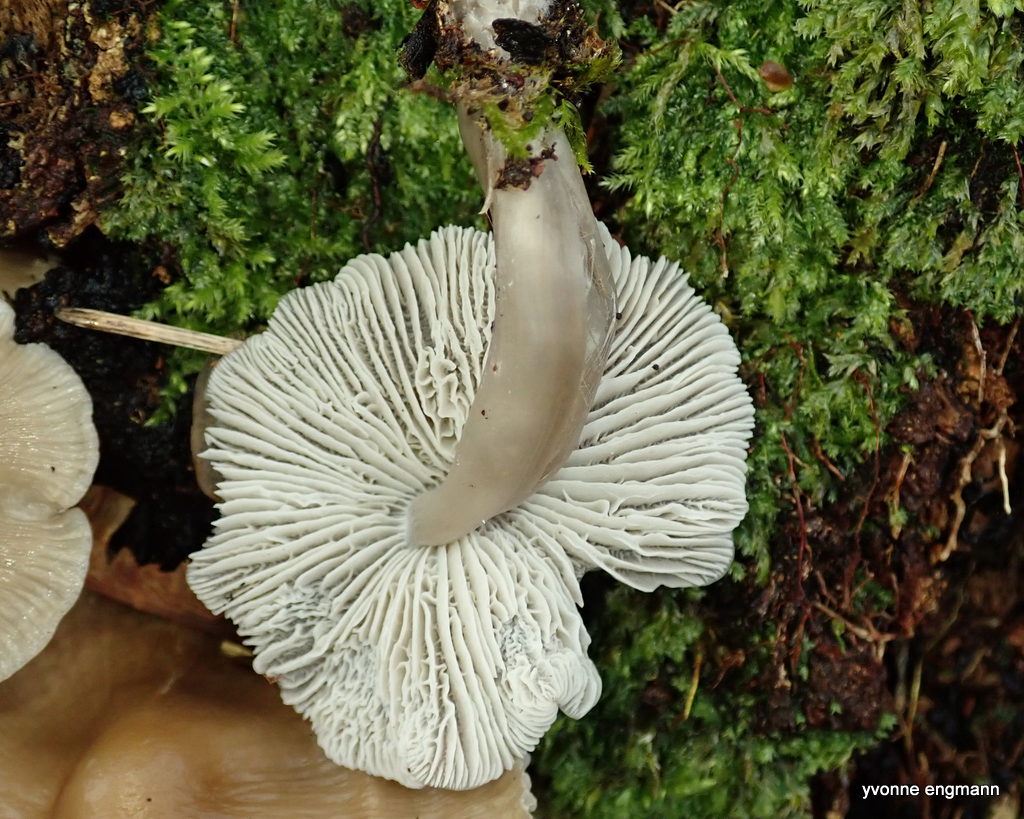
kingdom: Fungi
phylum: Basidiomycota
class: Agaricomycetes
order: Agaricales
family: Mycenaceae
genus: Mycena
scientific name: Mycena galericulata
